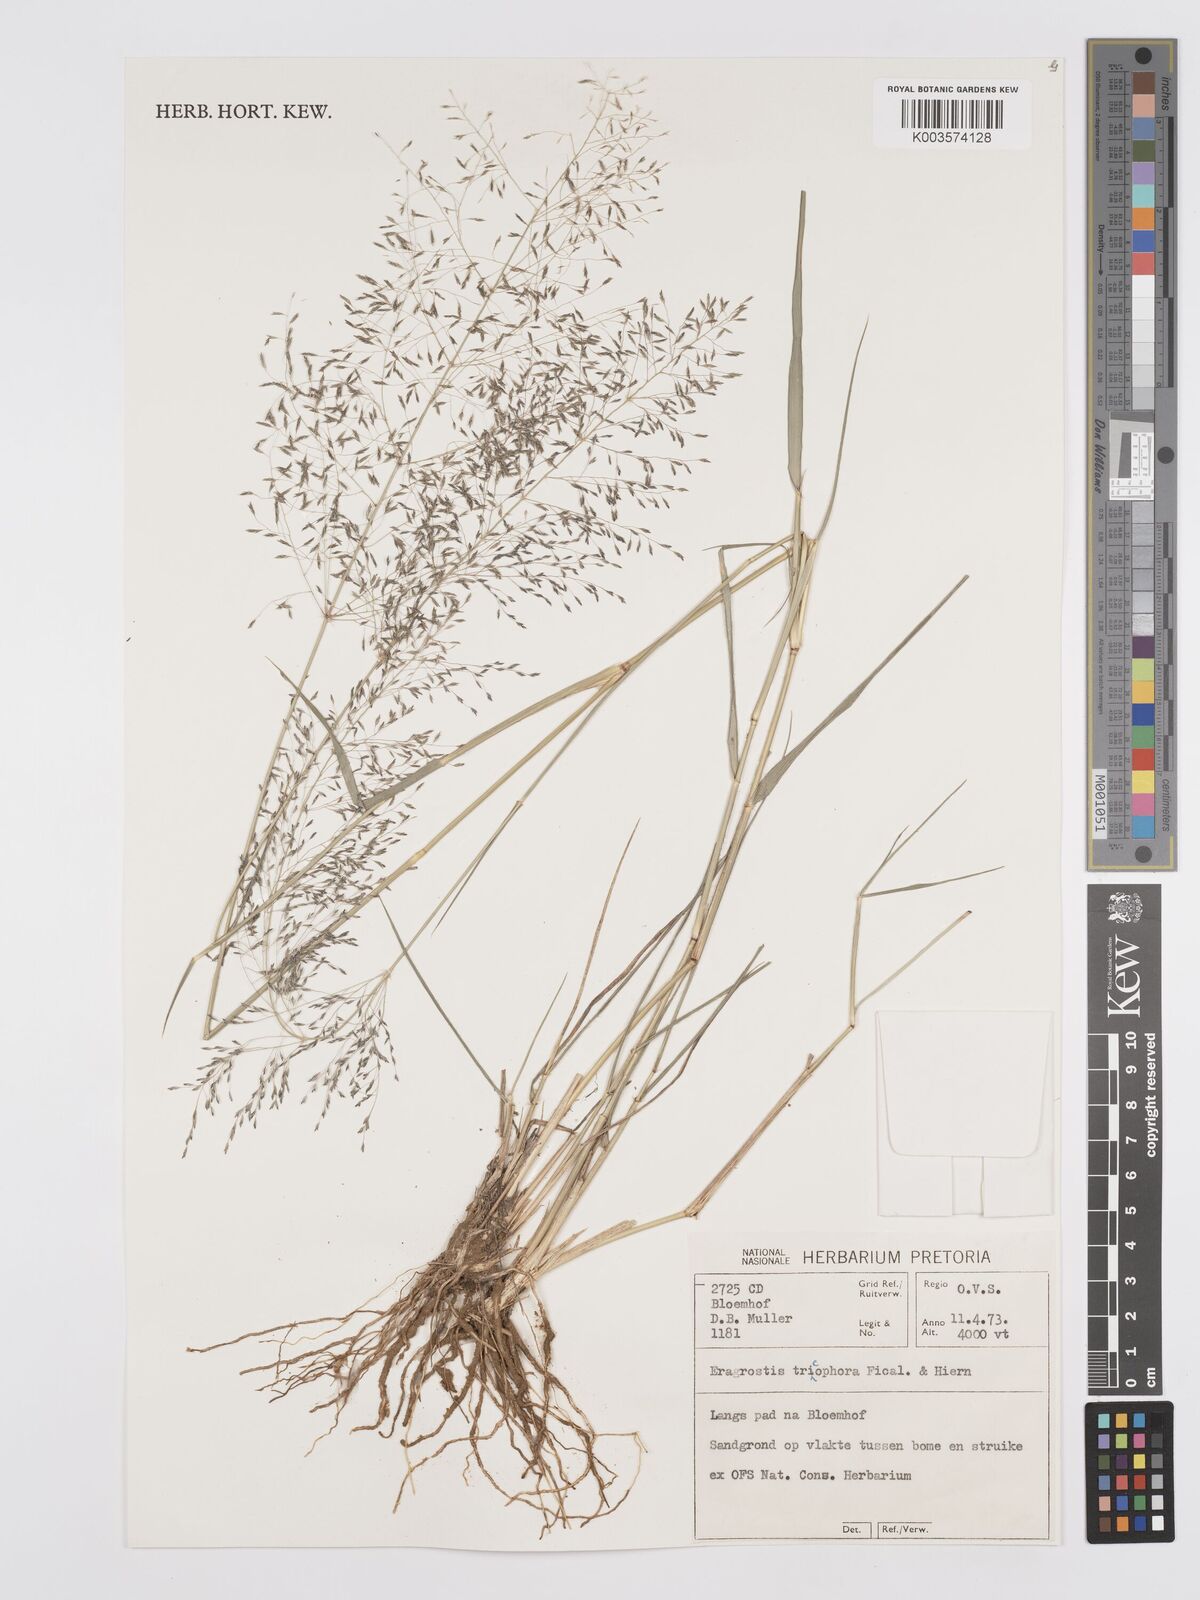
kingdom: Plantae
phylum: Tracheophyta
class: Liliopsida
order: Poales
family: Poaceae
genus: Eragrostis
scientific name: Eragrostis cylindriflora
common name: Cylinderflower lovegrass
